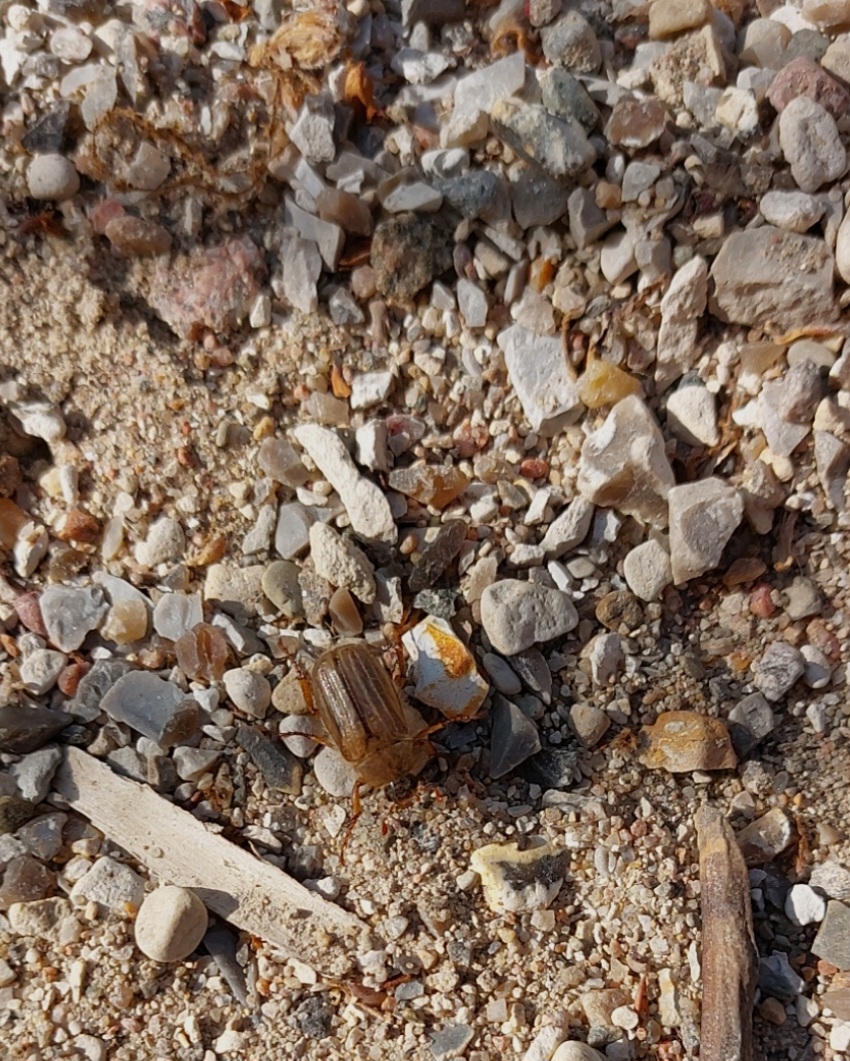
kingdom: Animalia
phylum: Arthropoda
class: Insecta
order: Coleoptera
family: Scarabaeidae
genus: Amphimallon
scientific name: Amphimallon solstitiale
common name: Sankthansoldenborre
